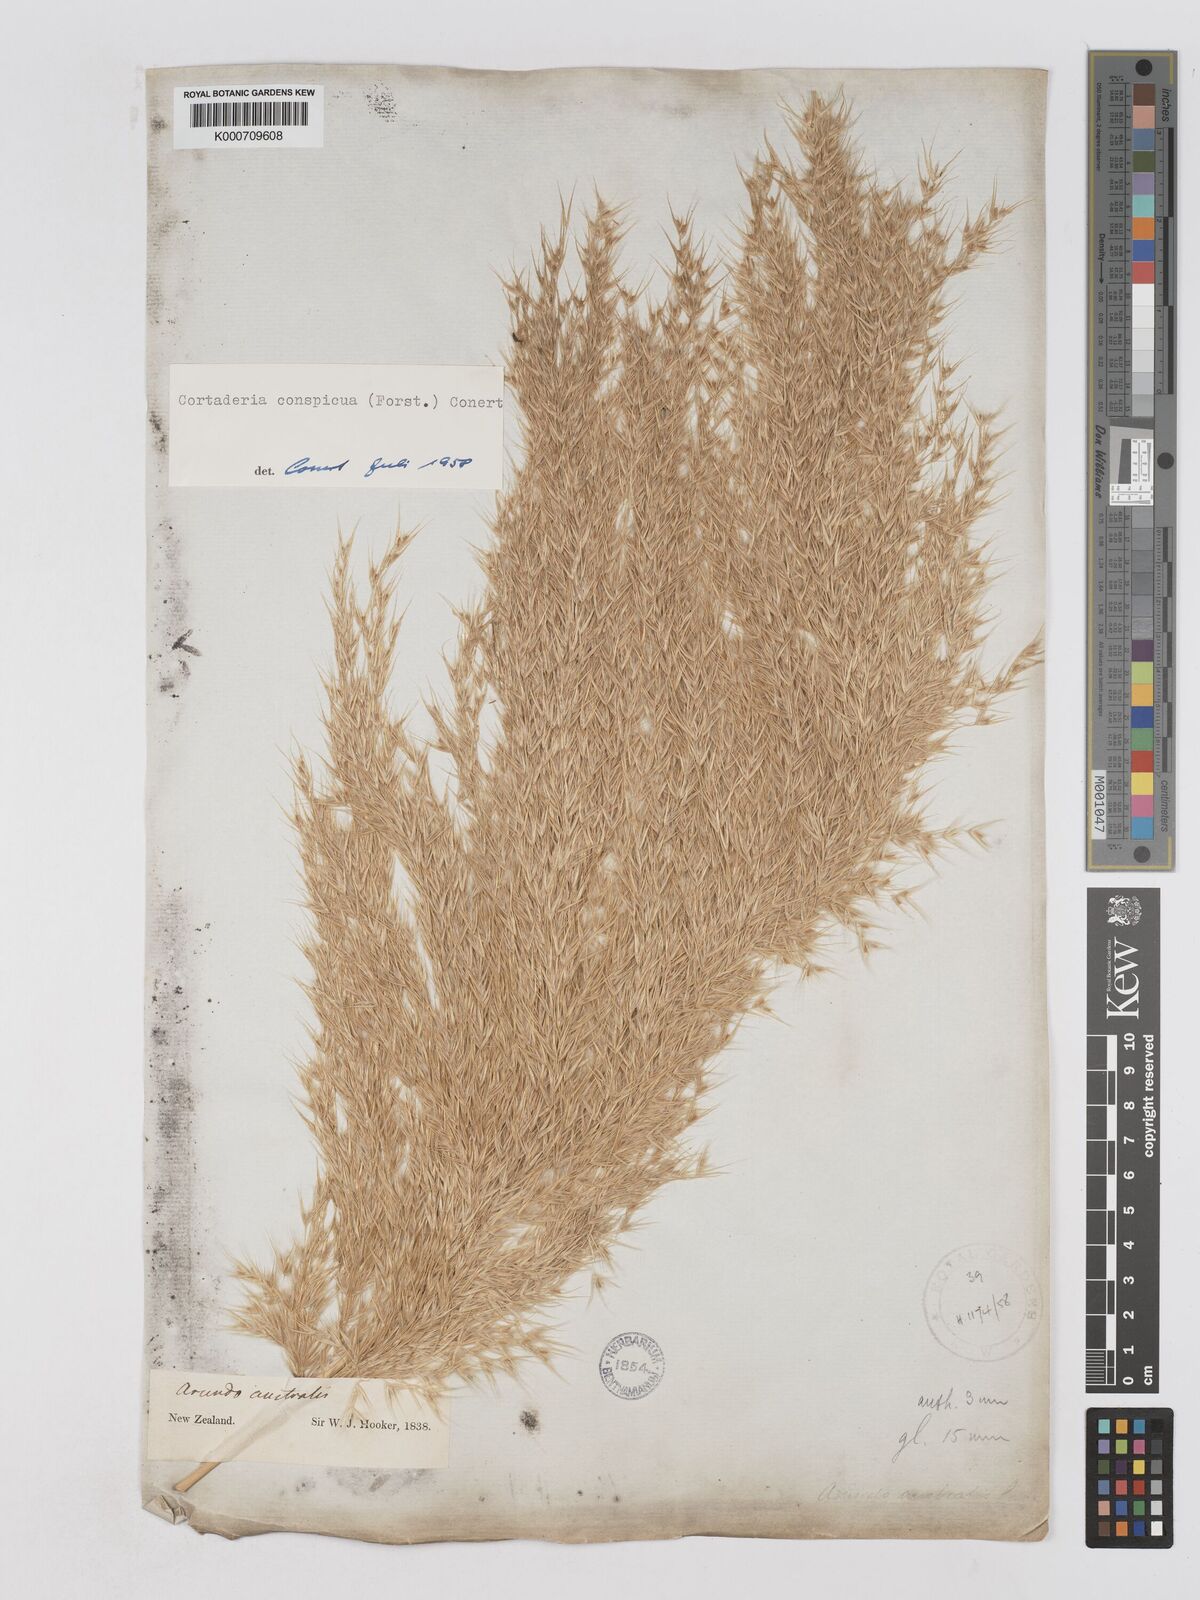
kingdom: Plantae
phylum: Tracheophyta
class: Liliopsida
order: Poales
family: Poaceae
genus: Austroderia
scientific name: Austroderia richardii
